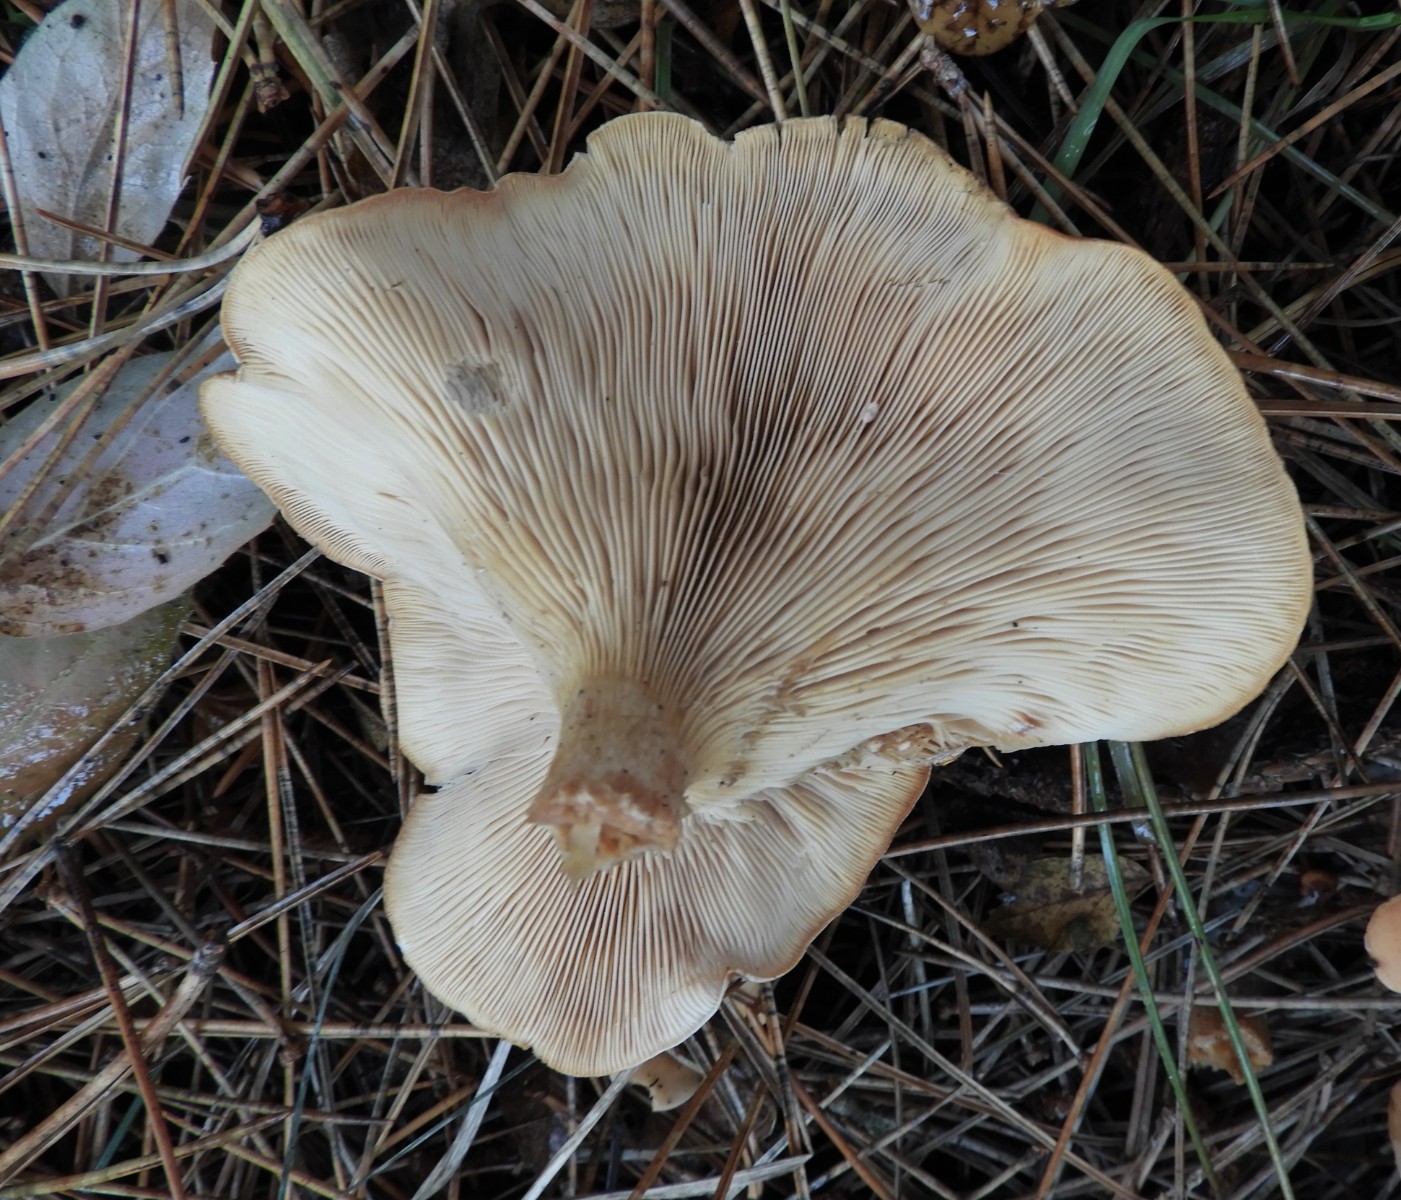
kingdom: Fungi
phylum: Basidiomycota
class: Agaricomycetes
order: Agaricales
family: Tricholomataceae
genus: Paralepista
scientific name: Paralepista flaccida
